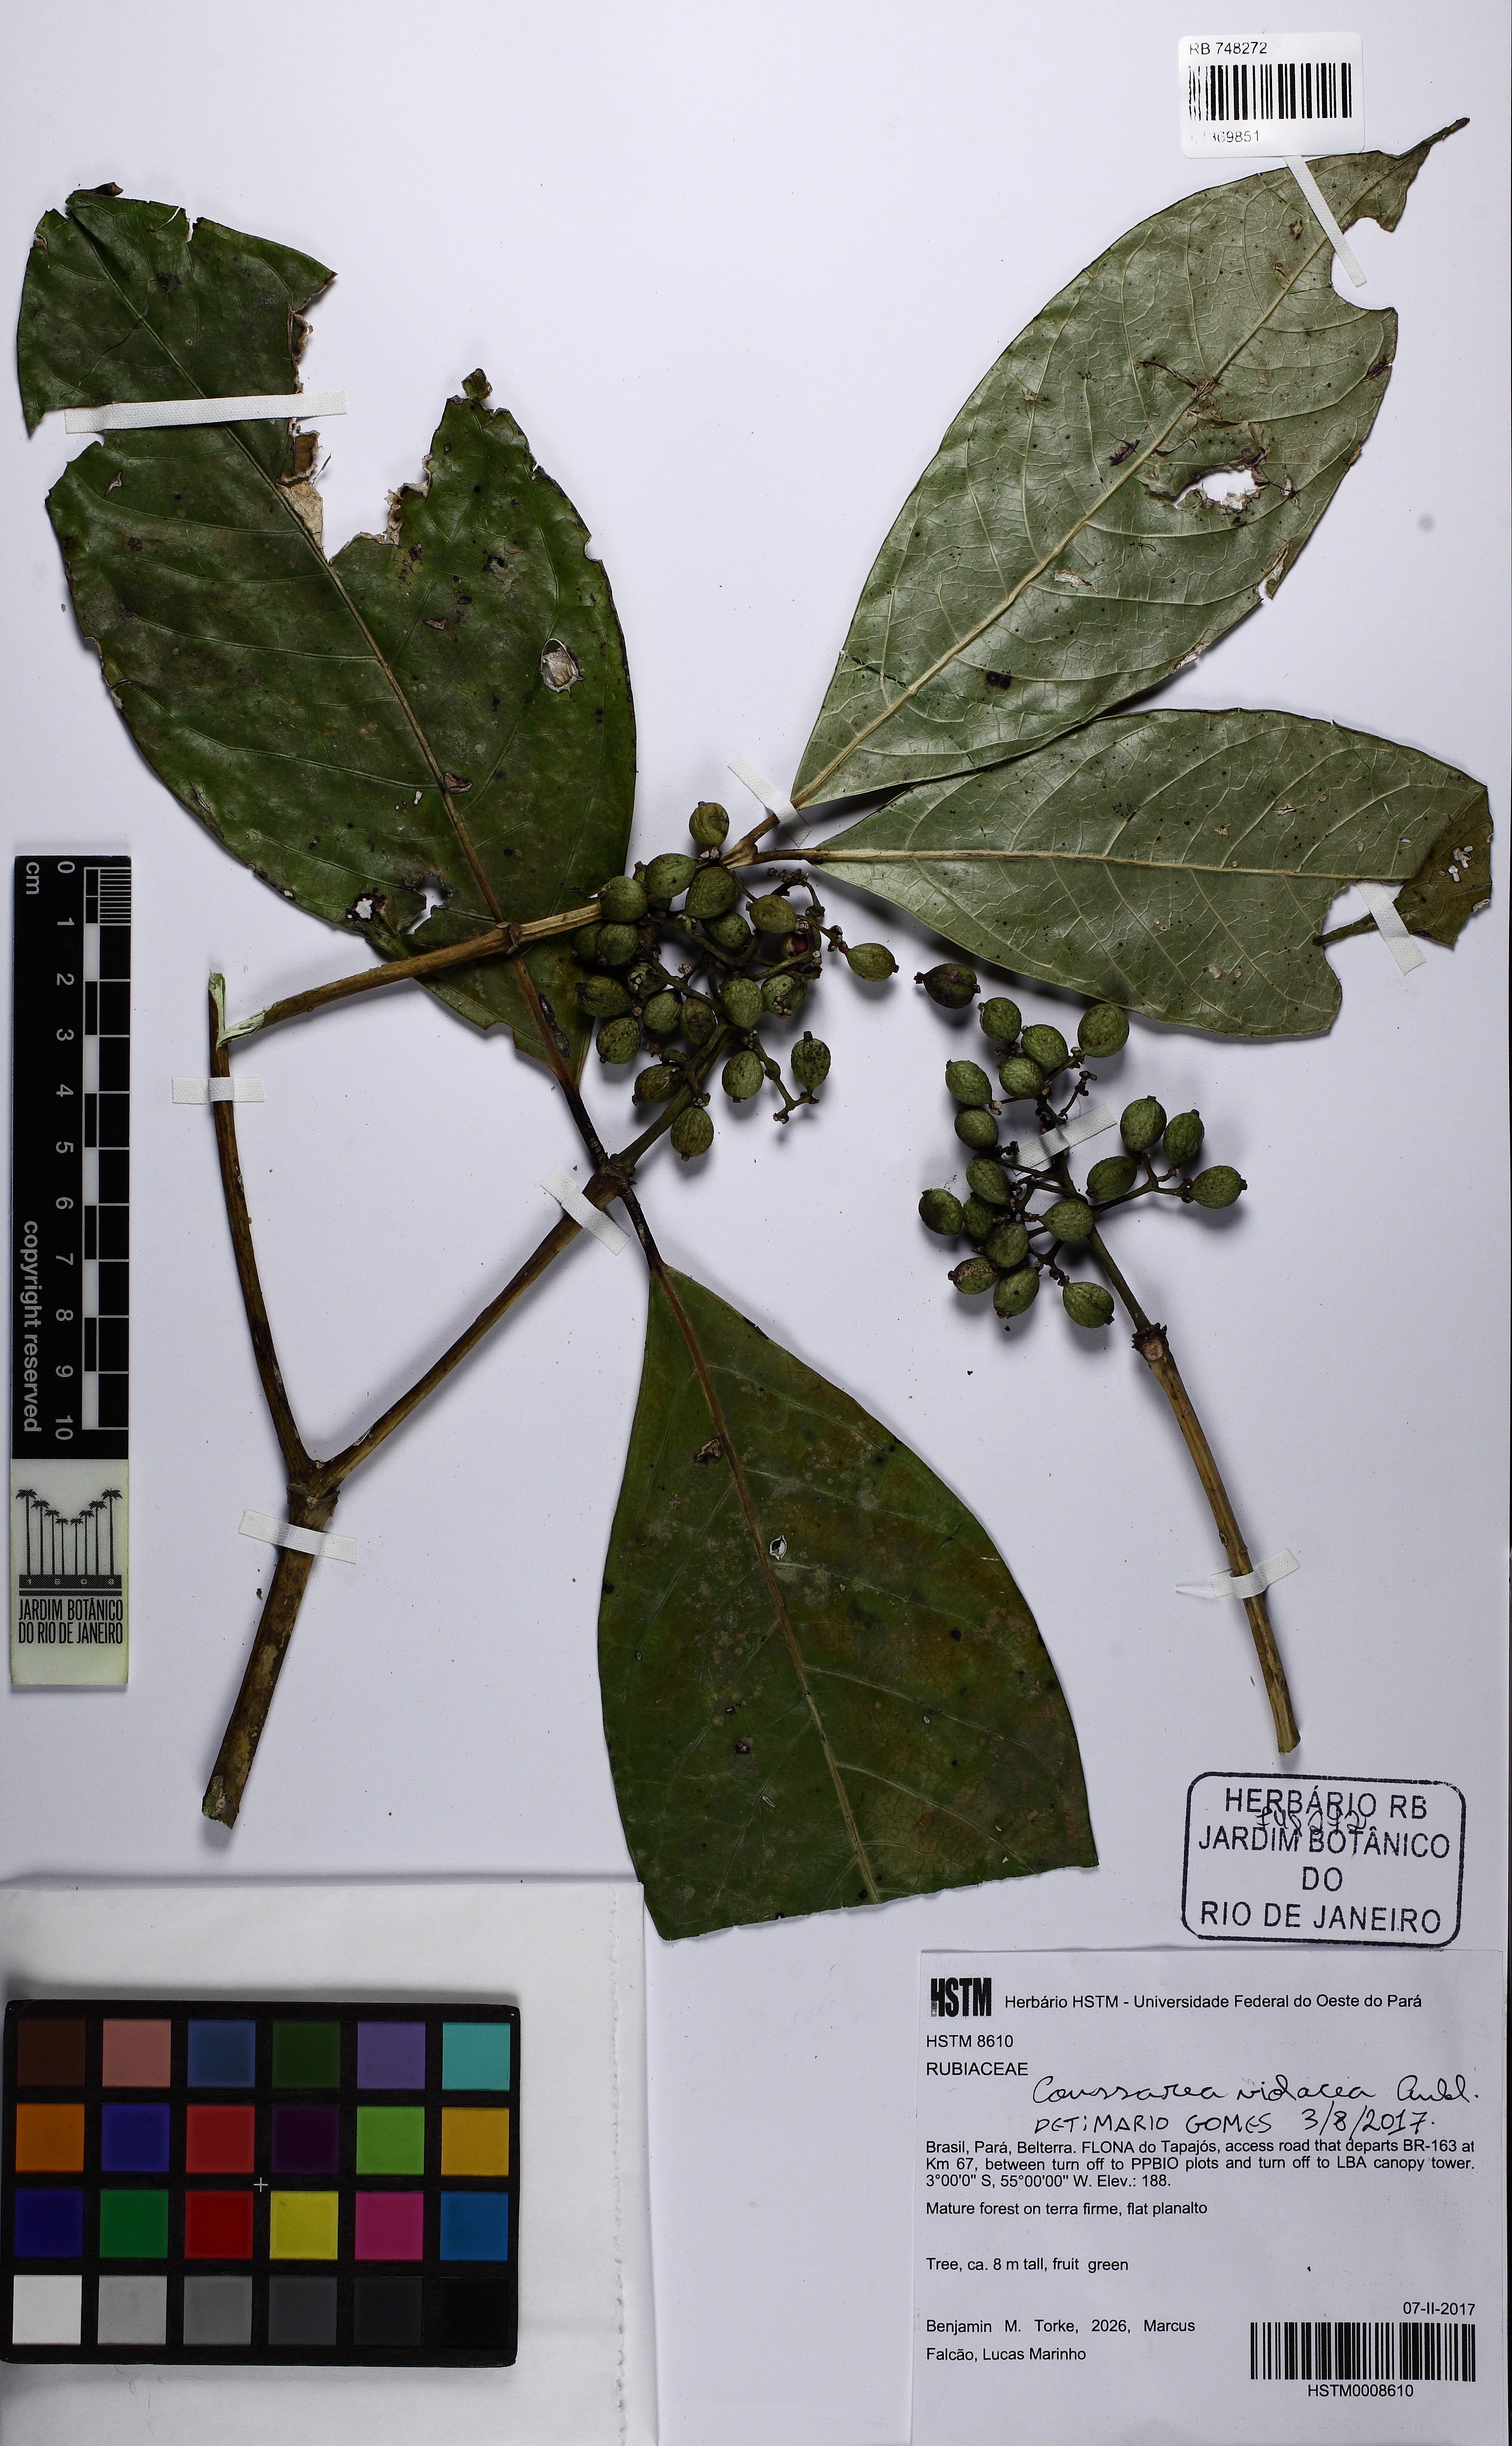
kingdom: Plantae
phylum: Tracheophyta
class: Magnoliopsida
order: Gentianales
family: Rubiaceae
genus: Coussarea
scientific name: Coussarea violacea
